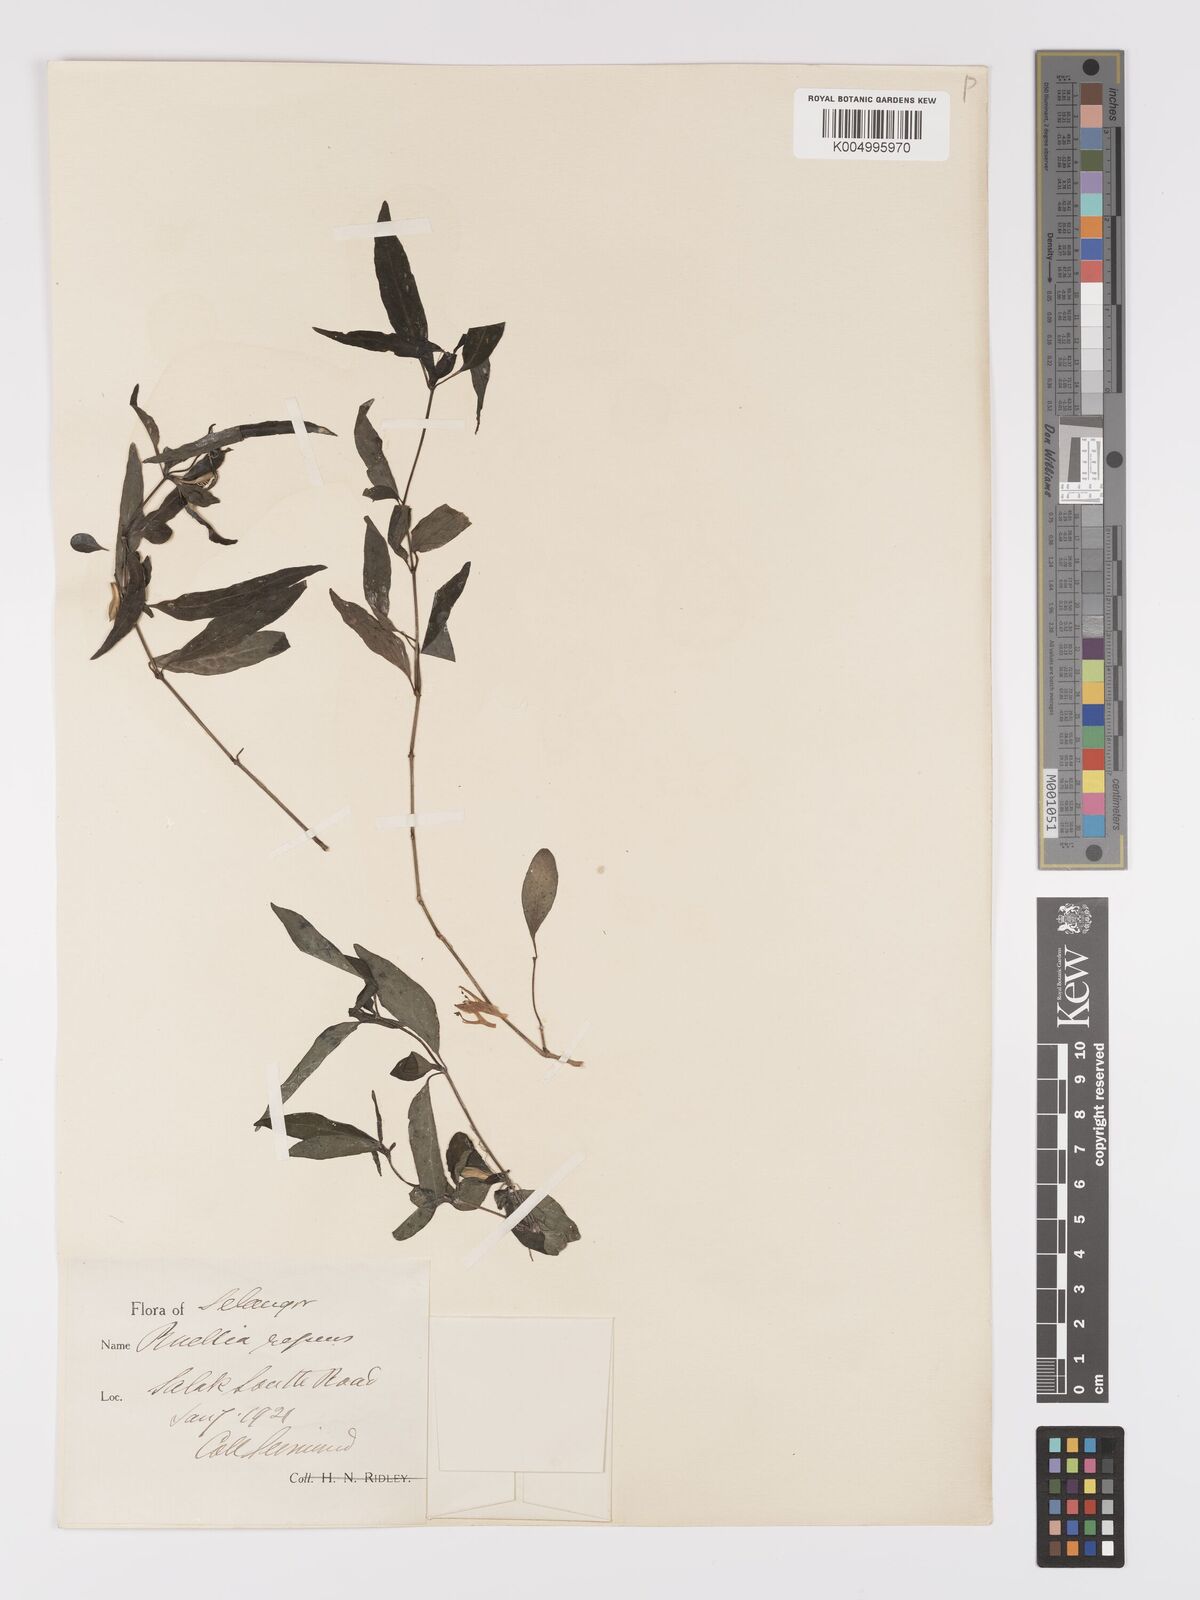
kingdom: Plantae
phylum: Tracheophyta
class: Magnoliopsida
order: Lamiales
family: Acanthaceae
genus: Ruellia
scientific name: Ruellia
